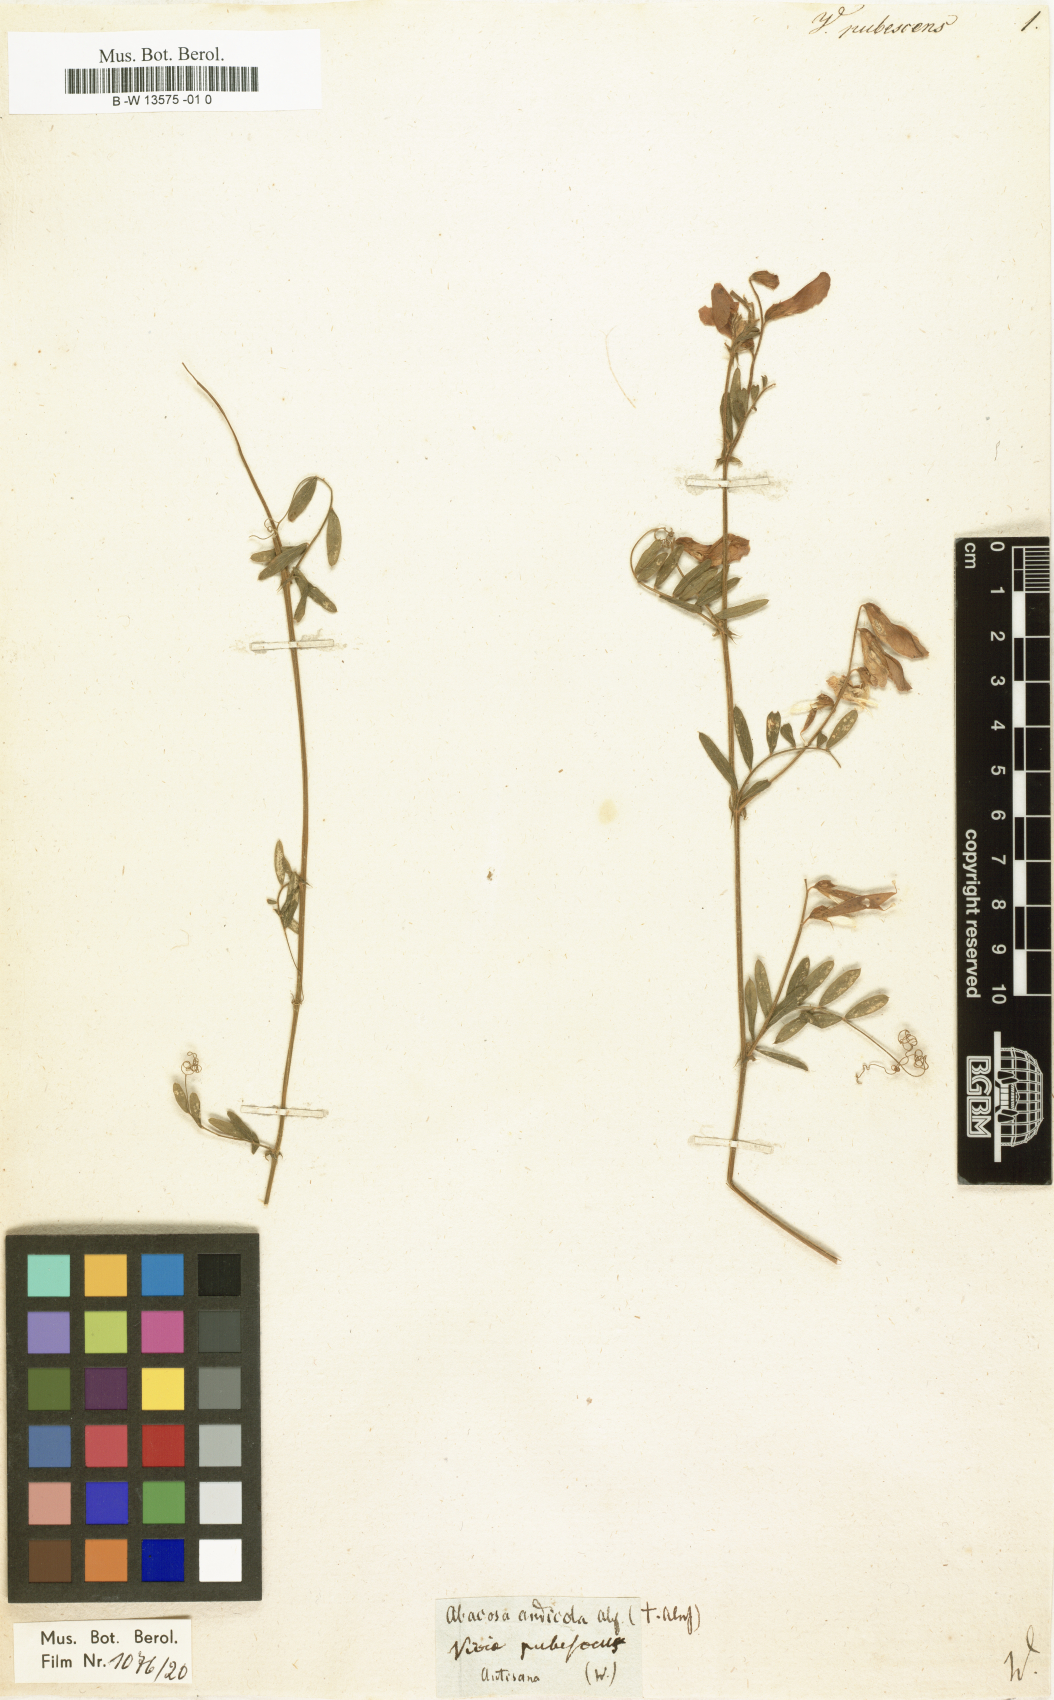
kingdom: Plantae
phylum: Tracheophyta
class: Magnoliopsida
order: Fabales
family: Fabaceae
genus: Vicia
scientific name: Vicia pubescens
